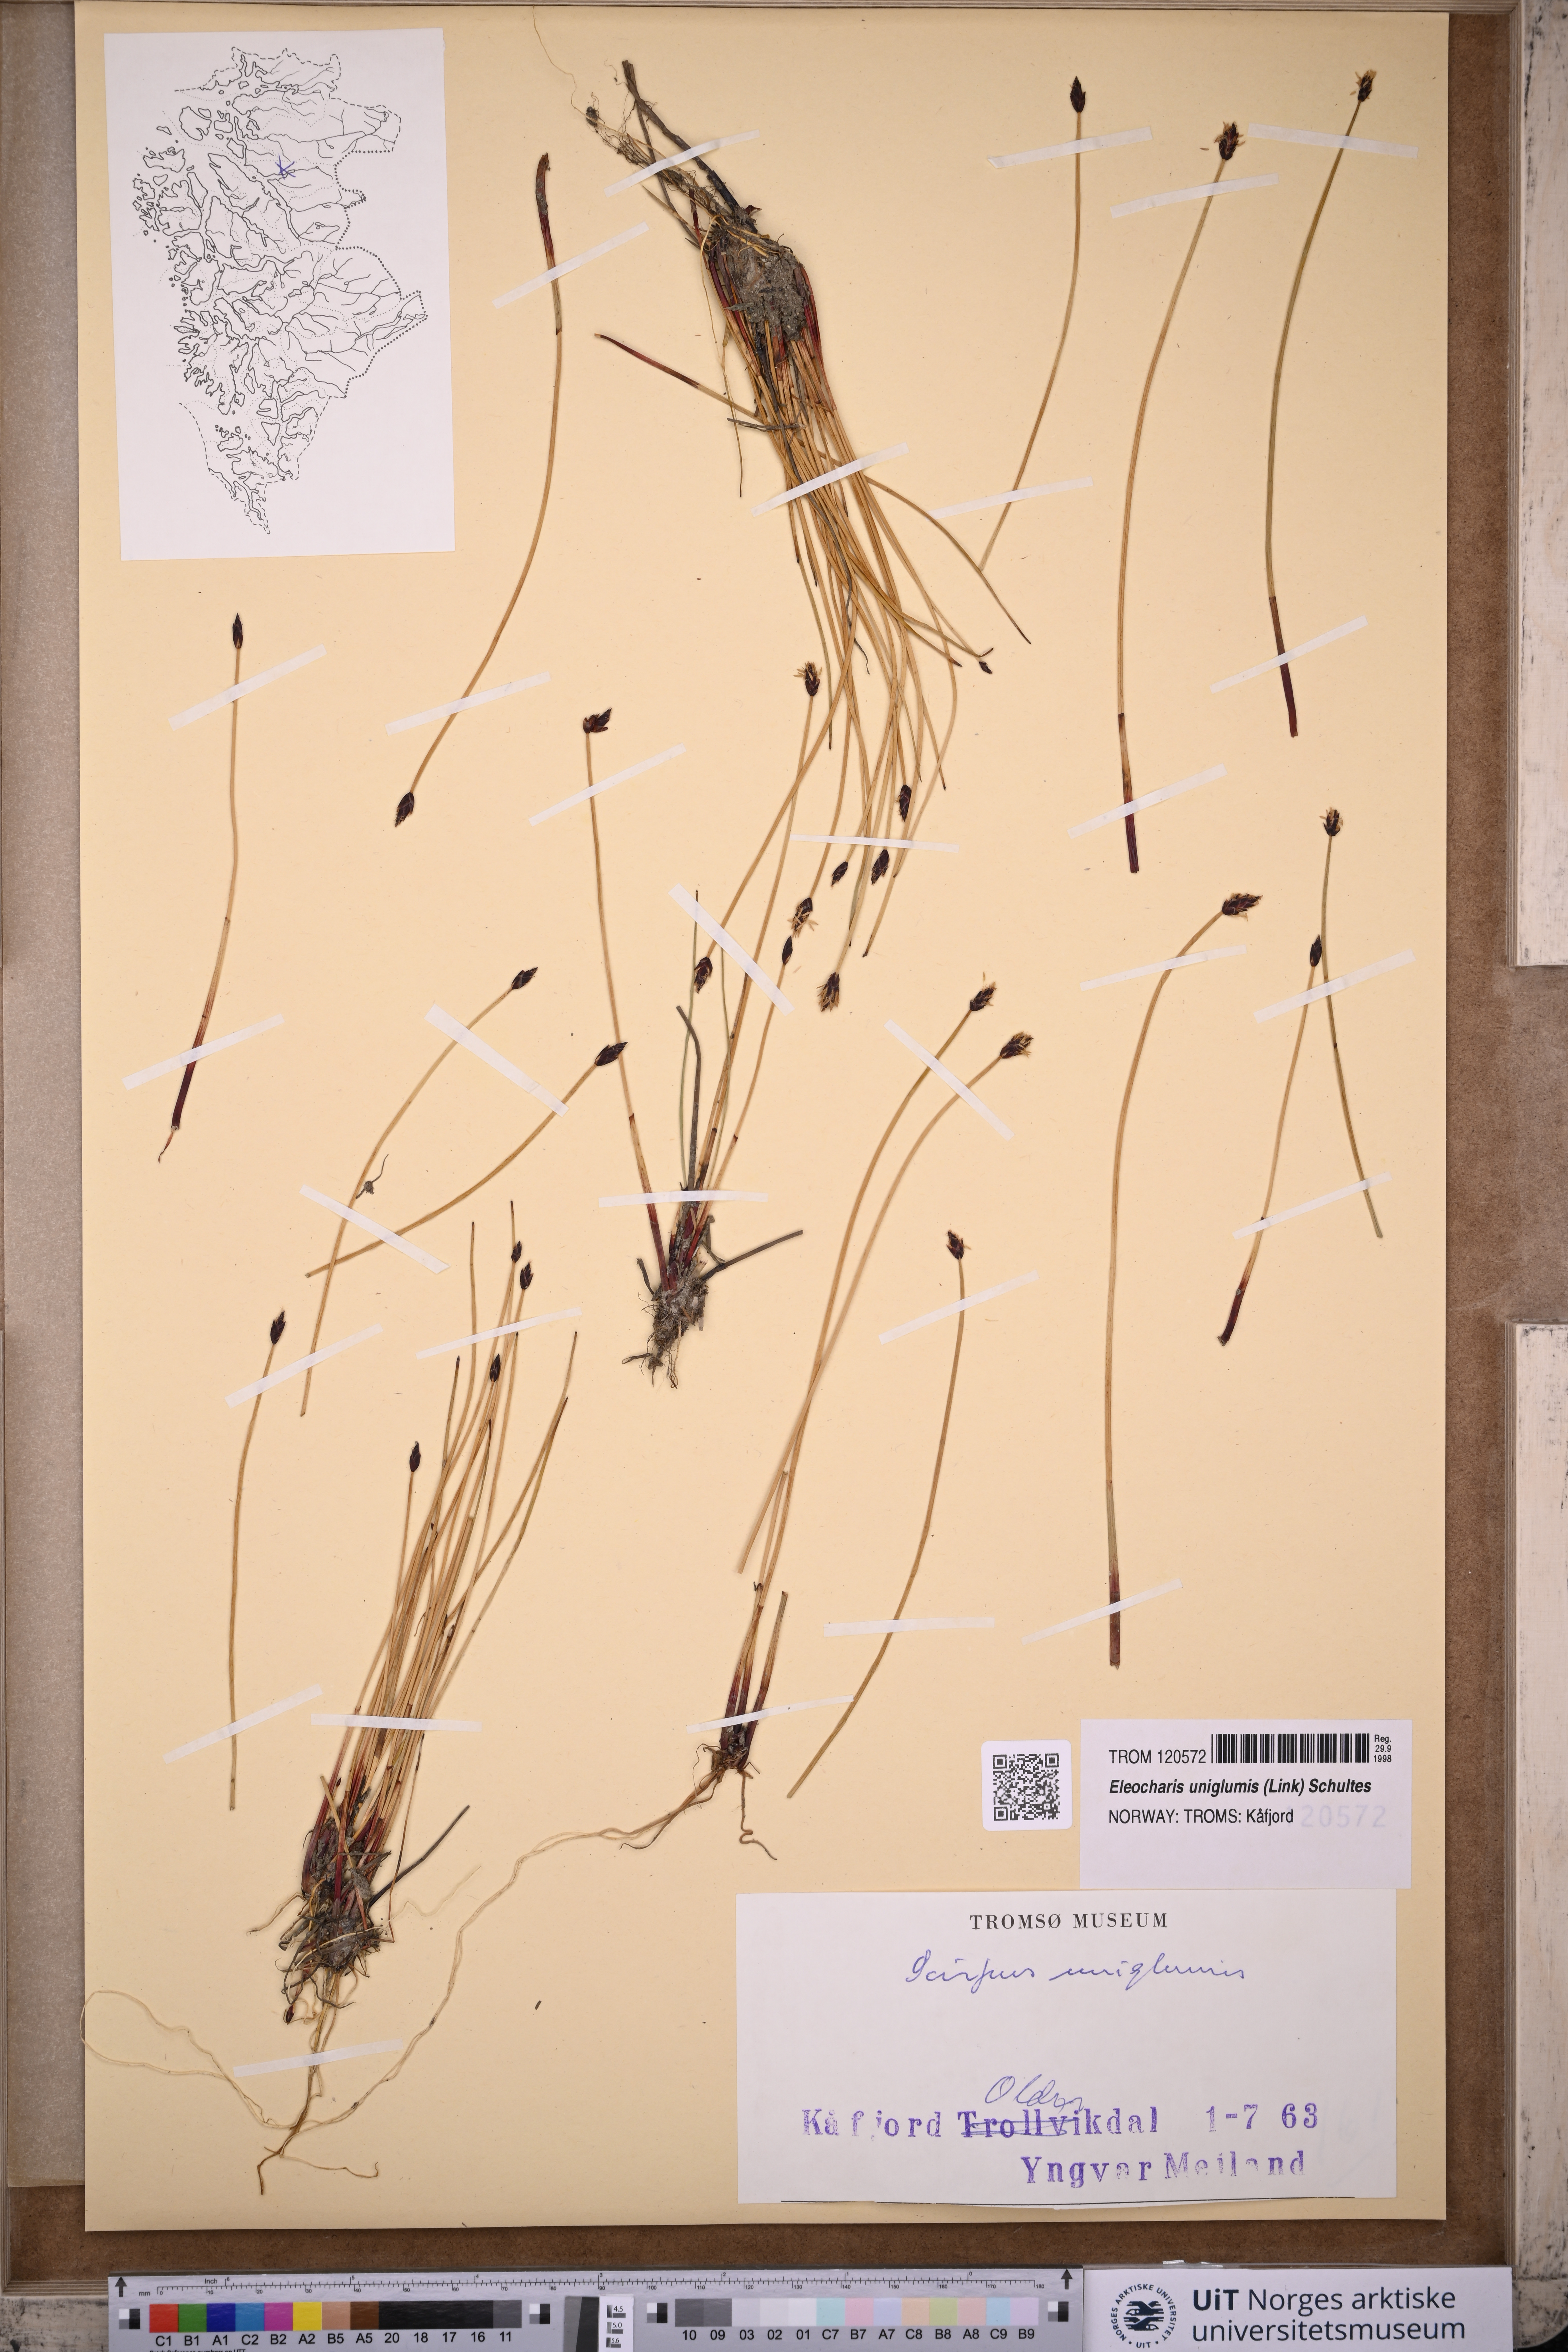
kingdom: Plantae
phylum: Tracheophyta
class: Liliopsida
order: Poales
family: Cyperaceae
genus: Eleocharis
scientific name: Eleocharis uniglumis
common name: Slender spike-rush
